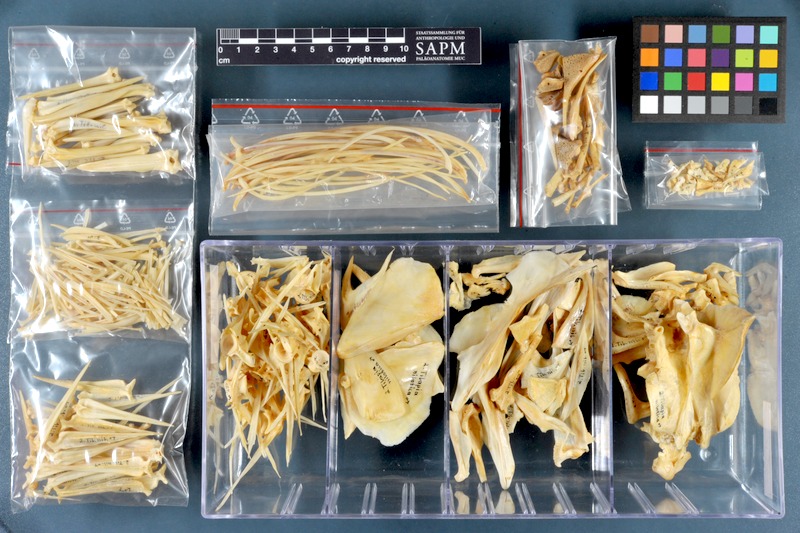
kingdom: Animalia
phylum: Chordata
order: Perciformes
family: Cichlidae
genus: Oreochromis
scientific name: Oreochromis niloticus
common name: Nile tilapia
